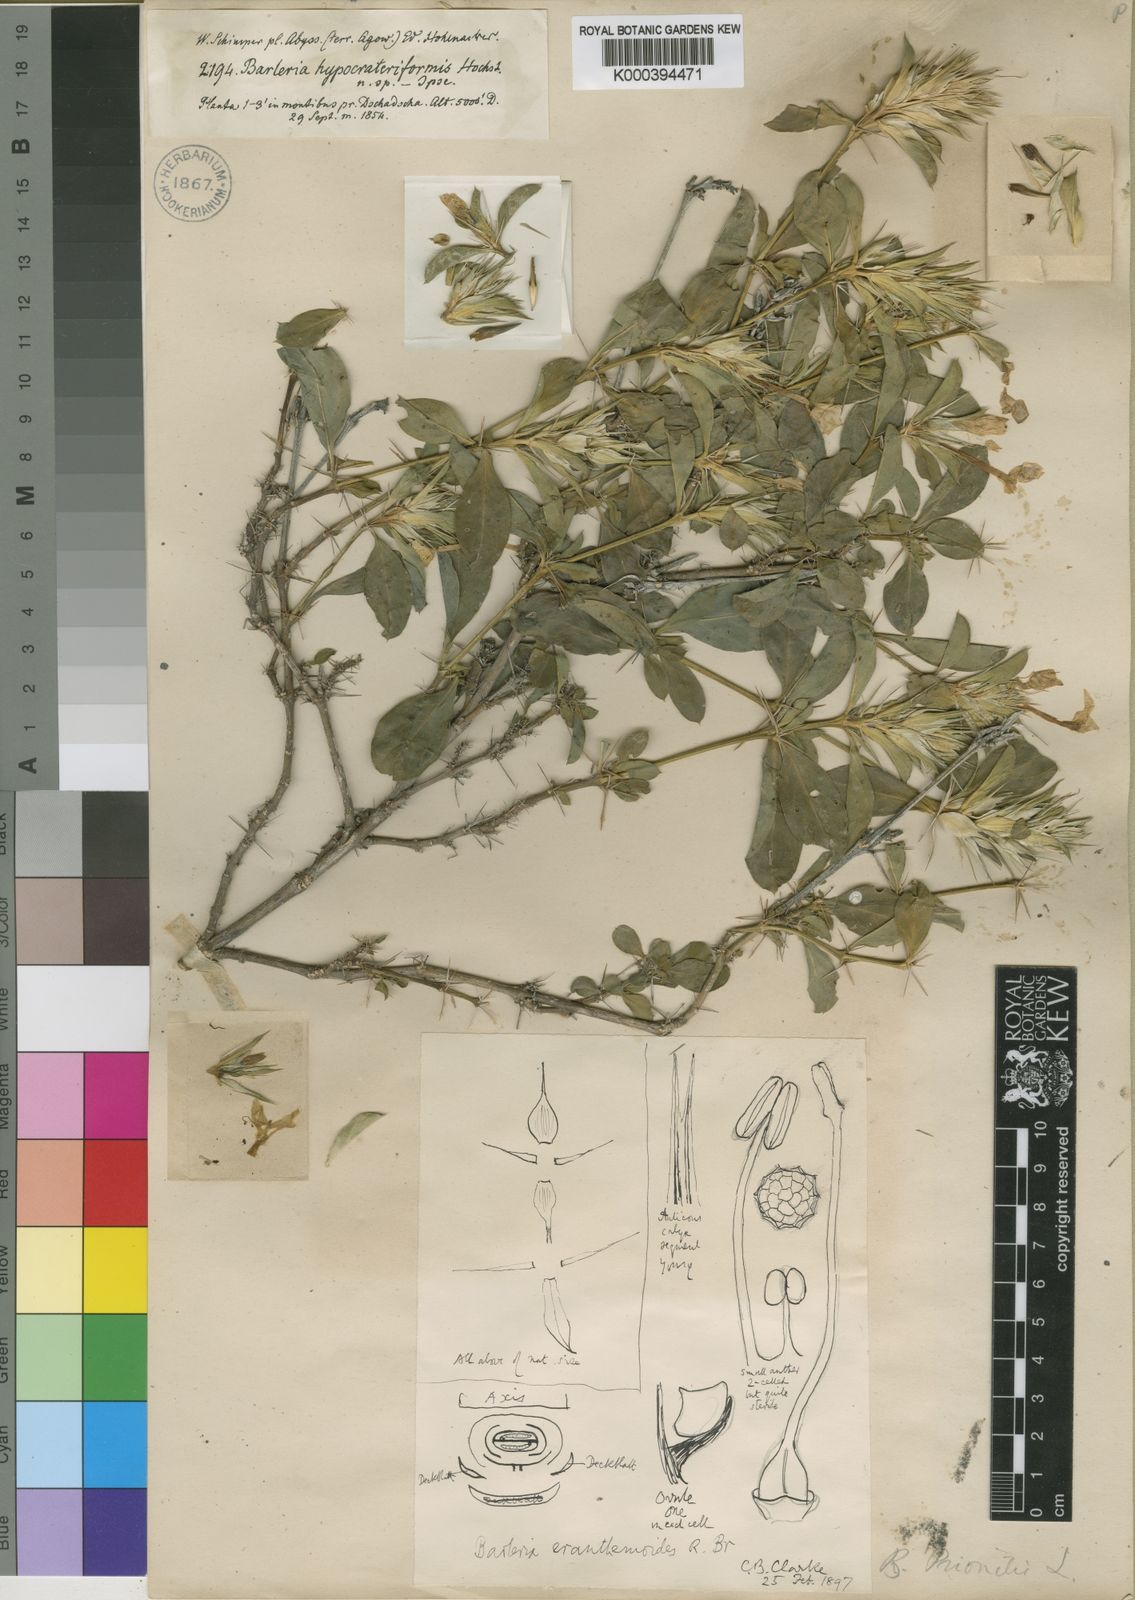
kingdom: Plantae
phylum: Tracheophyta
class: Magnoliopsida
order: Lamiales
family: Acanthaceae
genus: Barleria
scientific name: Barleria eranthemoides
